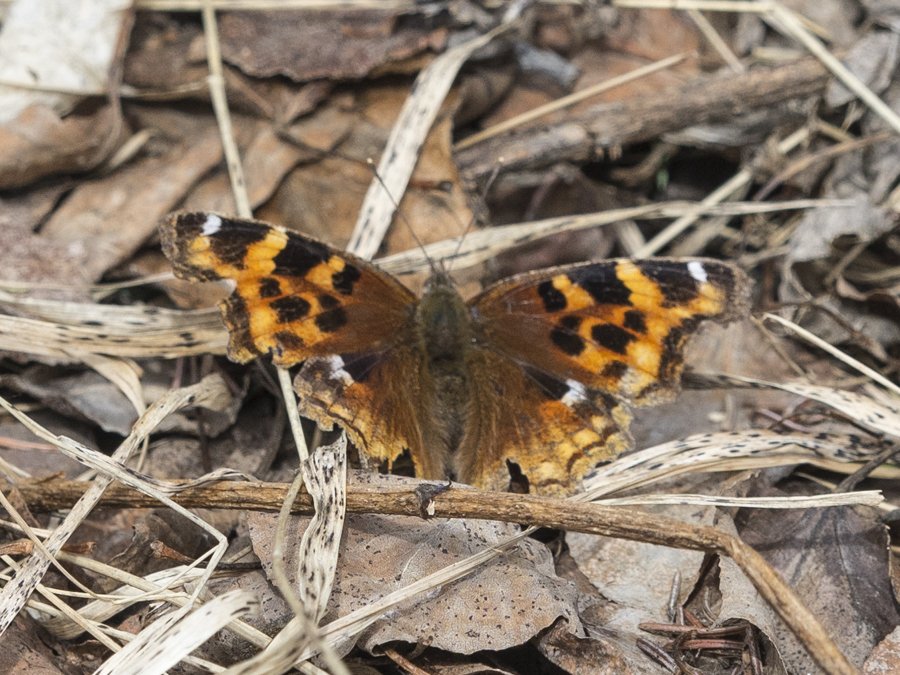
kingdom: Animalia
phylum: Arthropoda
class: Insecta
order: Lepidoptera
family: Nymphalidae
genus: Polygonia
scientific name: Polygonia vaualbum
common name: Compton Tortoiseshell
